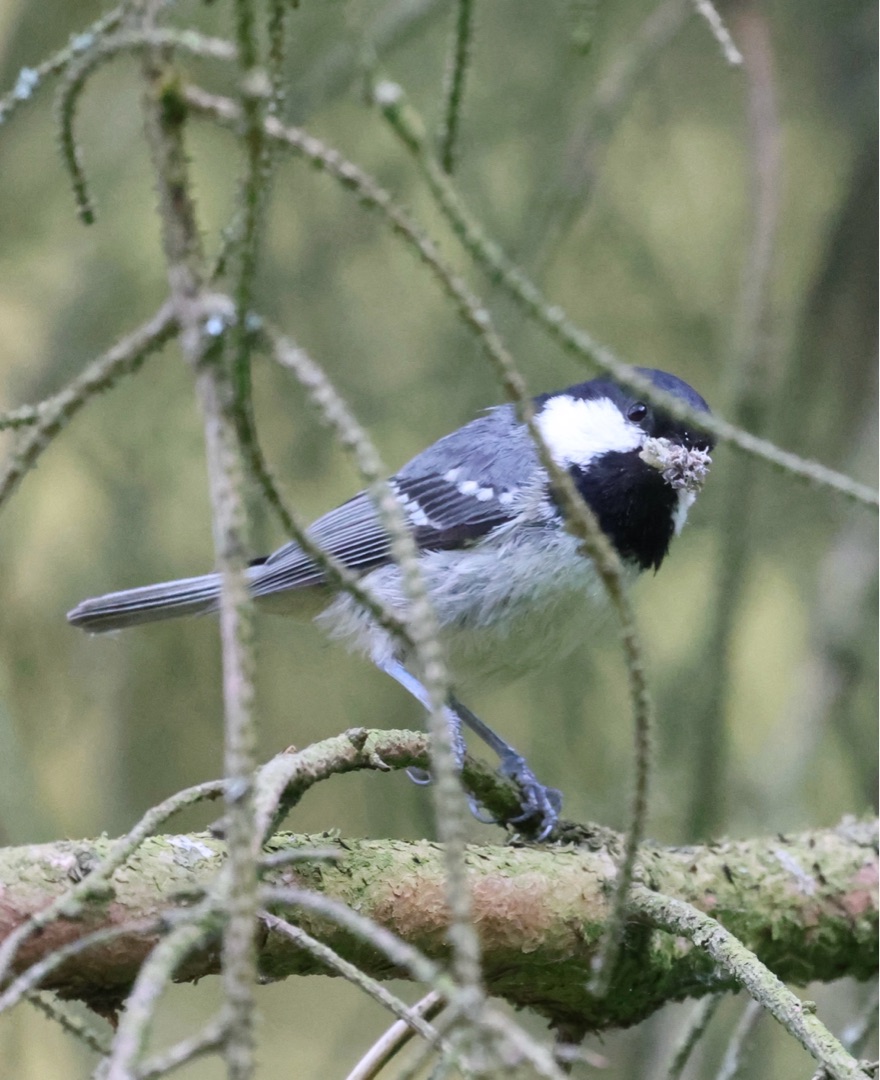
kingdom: Animalia
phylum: Chordata
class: Aves
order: Passeriformes
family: Paridae
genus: Periparus
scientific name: Periparus ater
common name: Sortmejse
